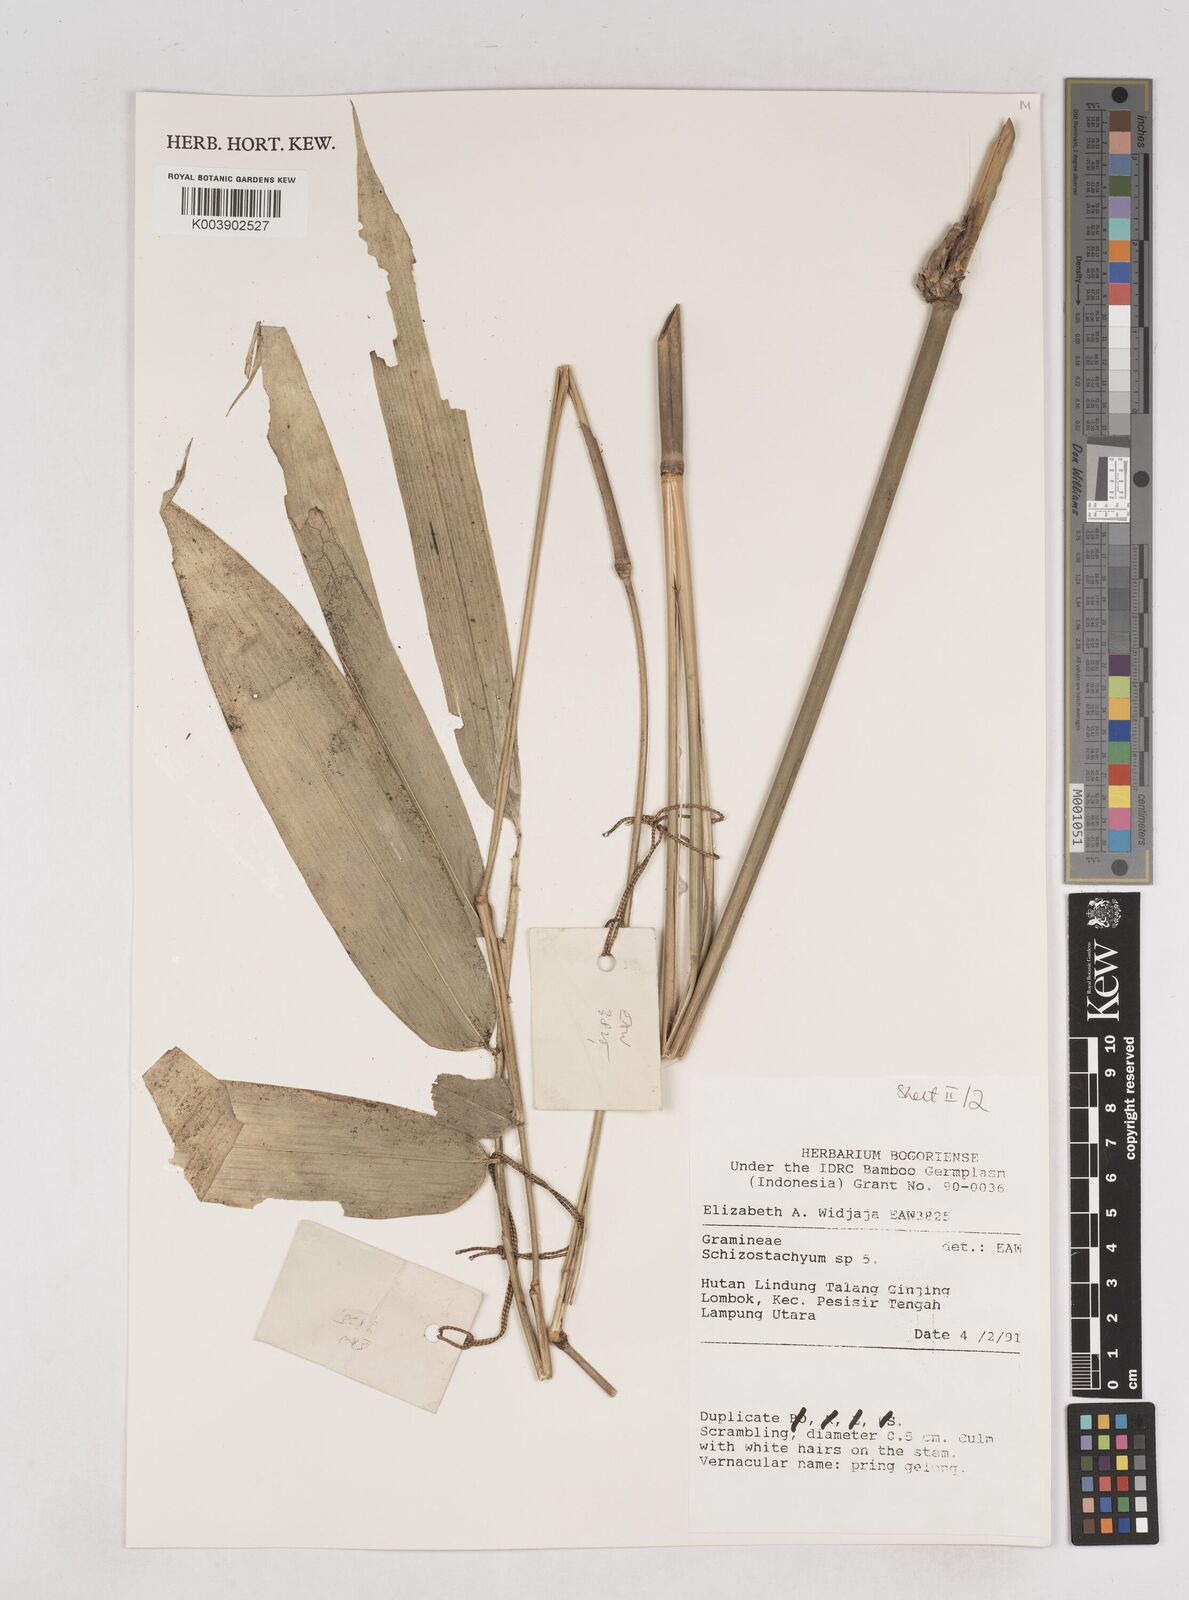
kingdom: Plantae
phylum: Tracheophyta
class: Liliopsida
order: Poales
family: Poaceae
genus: Schizostachyum
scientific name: Schizostachyum
